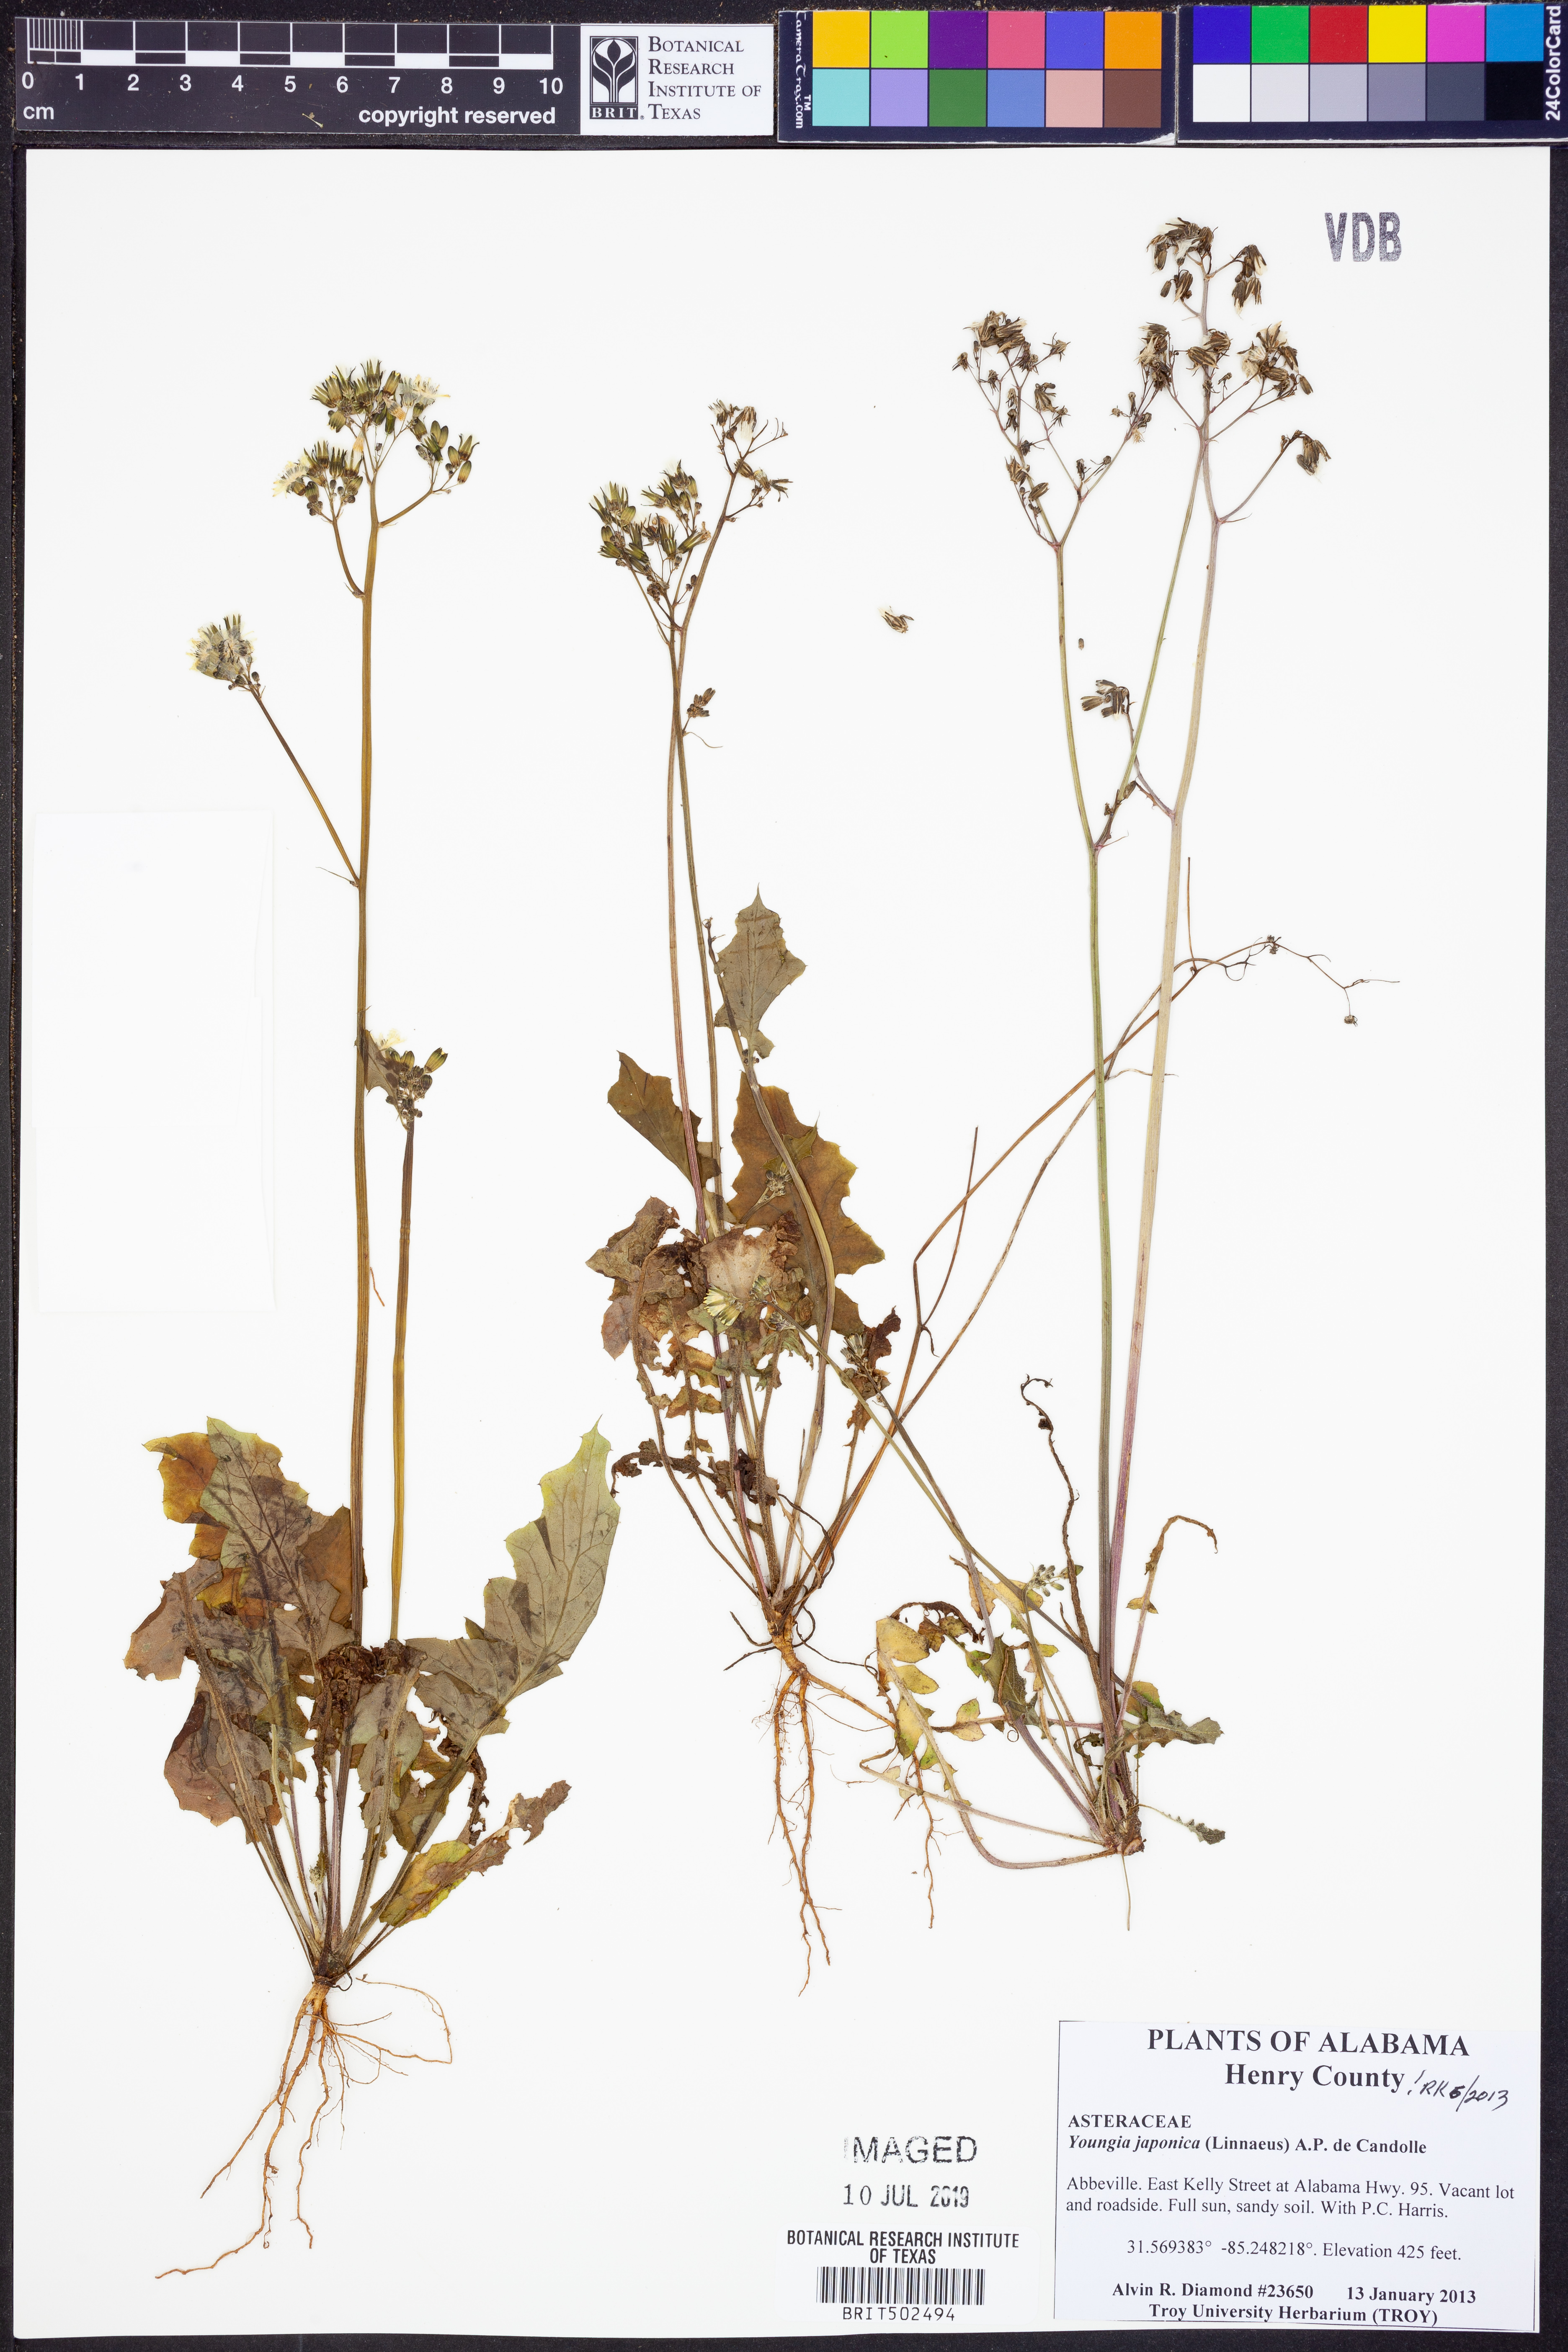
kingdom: Plantae
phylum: Tracheophyta
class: Magnoliopsida
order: Asterales
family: Asteraceae
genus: Youngia
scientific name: Youngia japonica
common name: Oriental false hawksbeard
